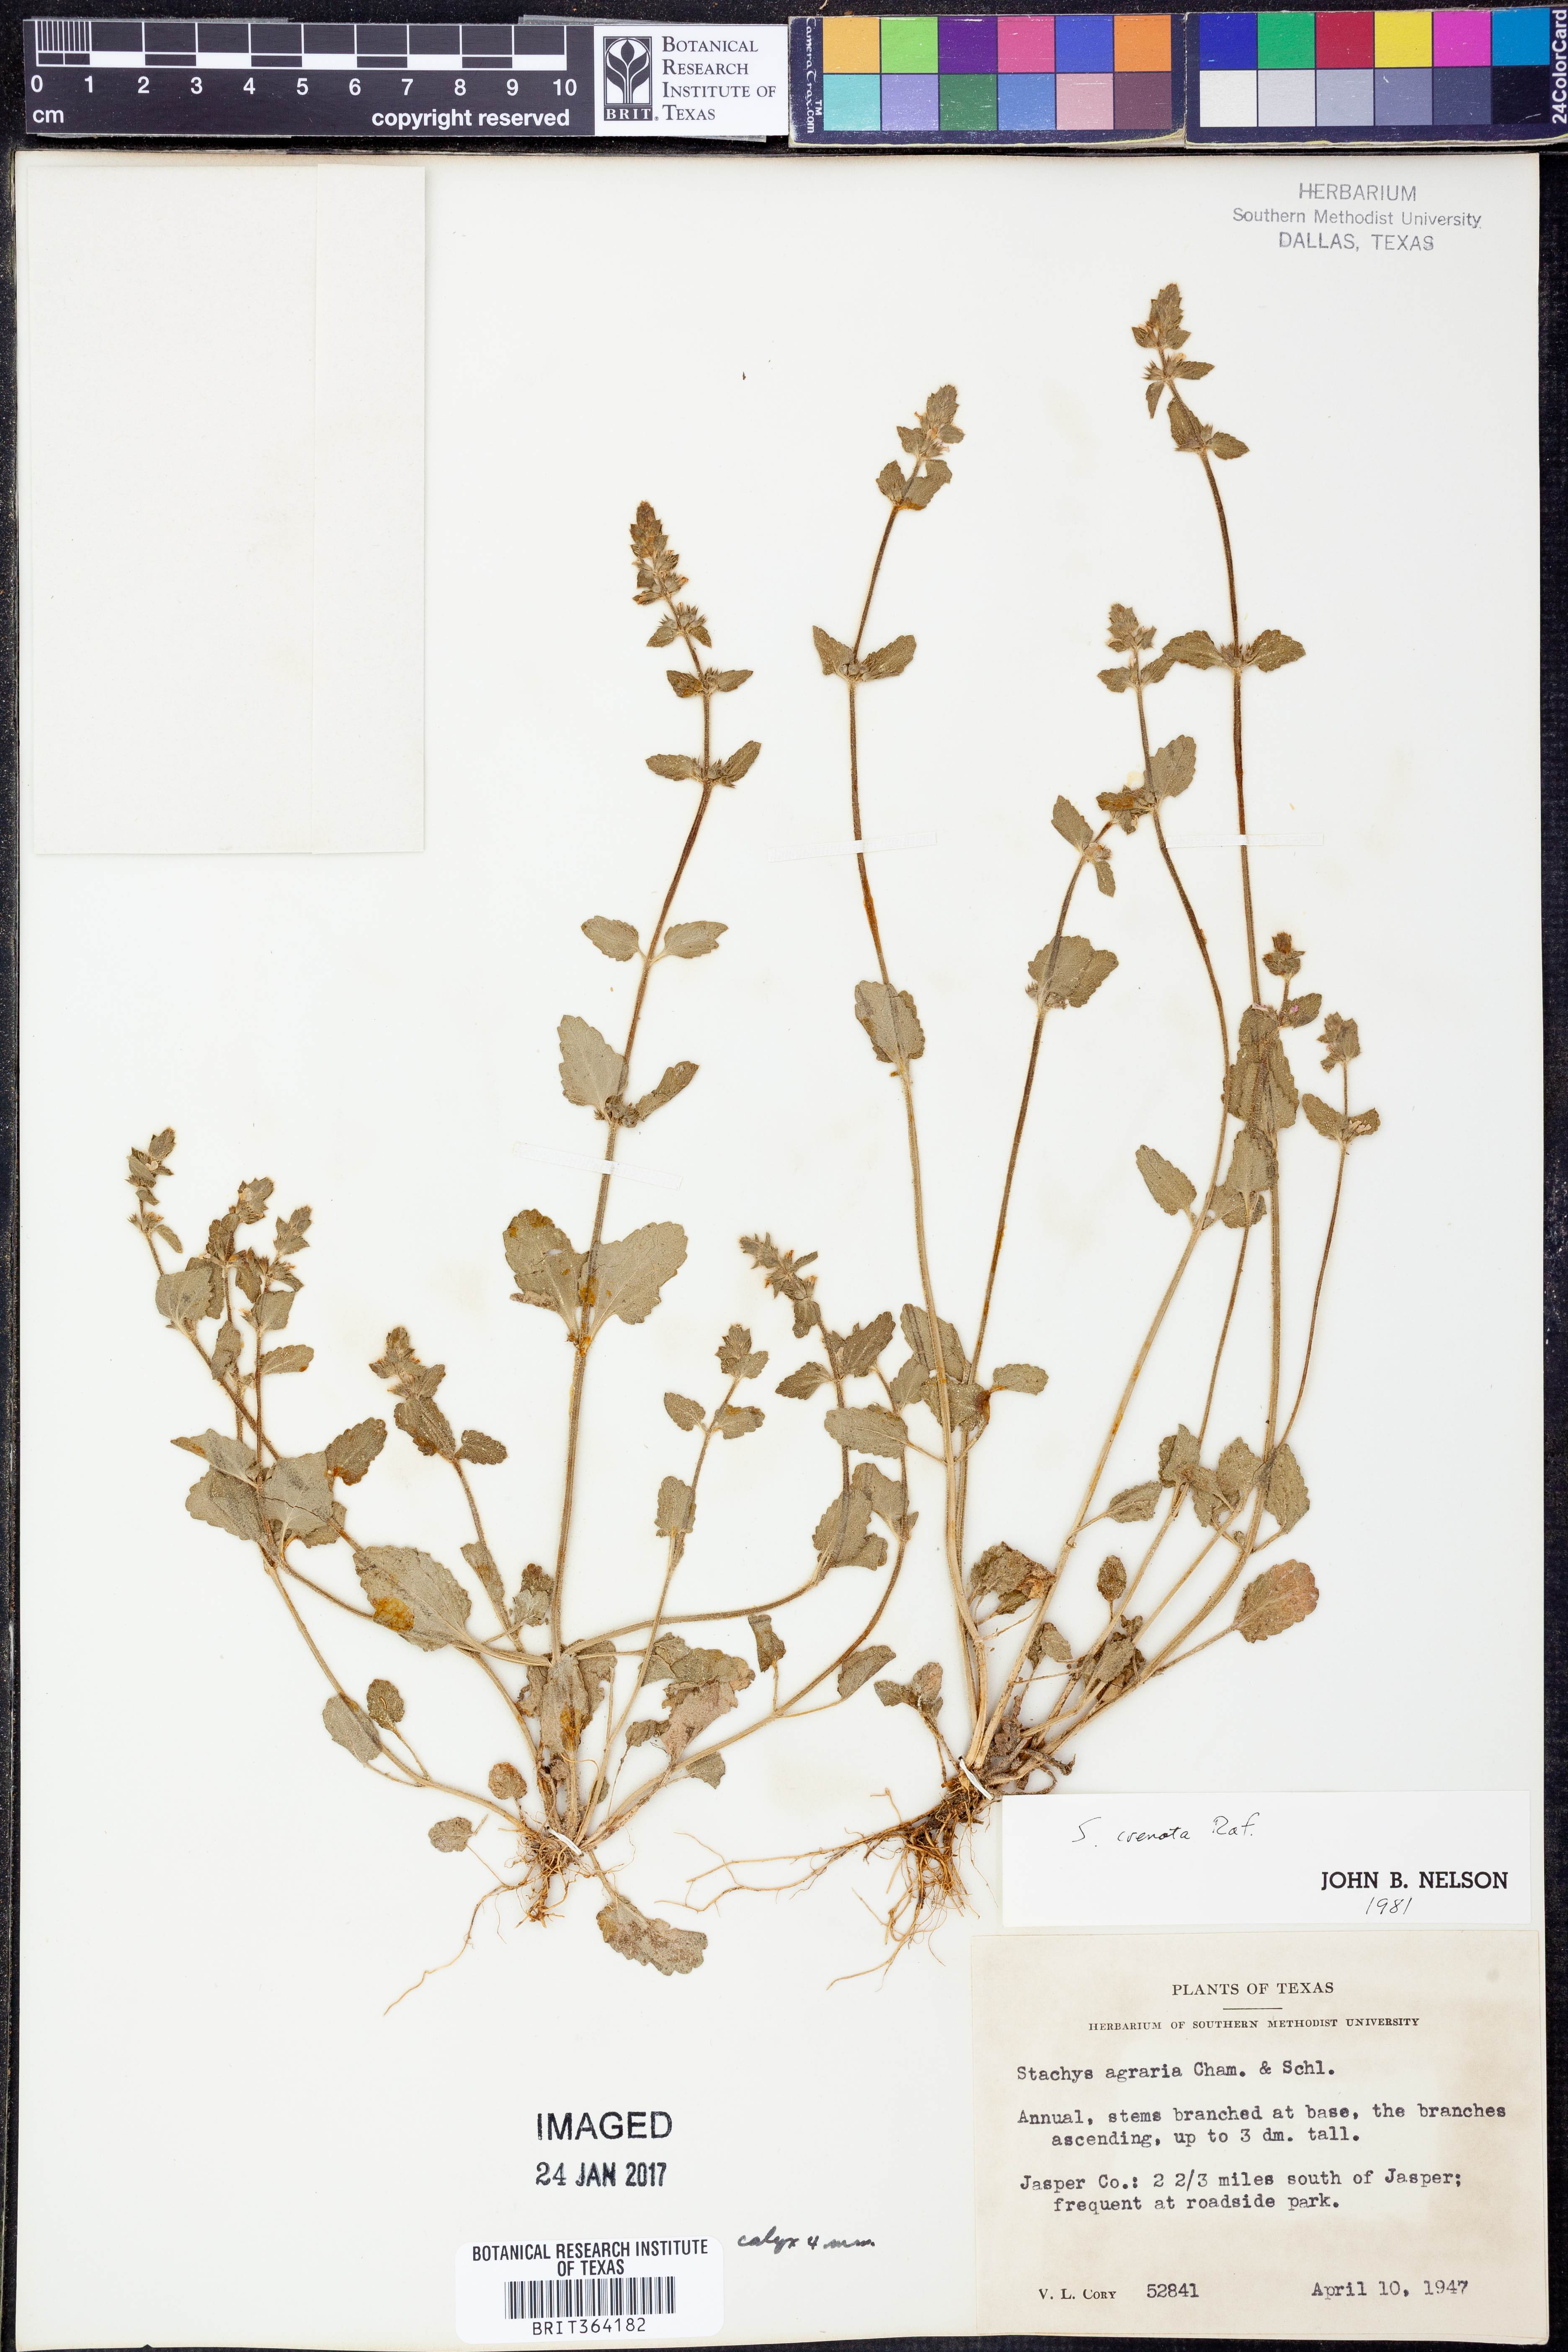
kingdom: Plantae
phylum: Tracheophyta
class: Magnoliopsida
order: Lamiales
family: Lamiaceae
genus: Stachys
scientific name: Stachys agraria
